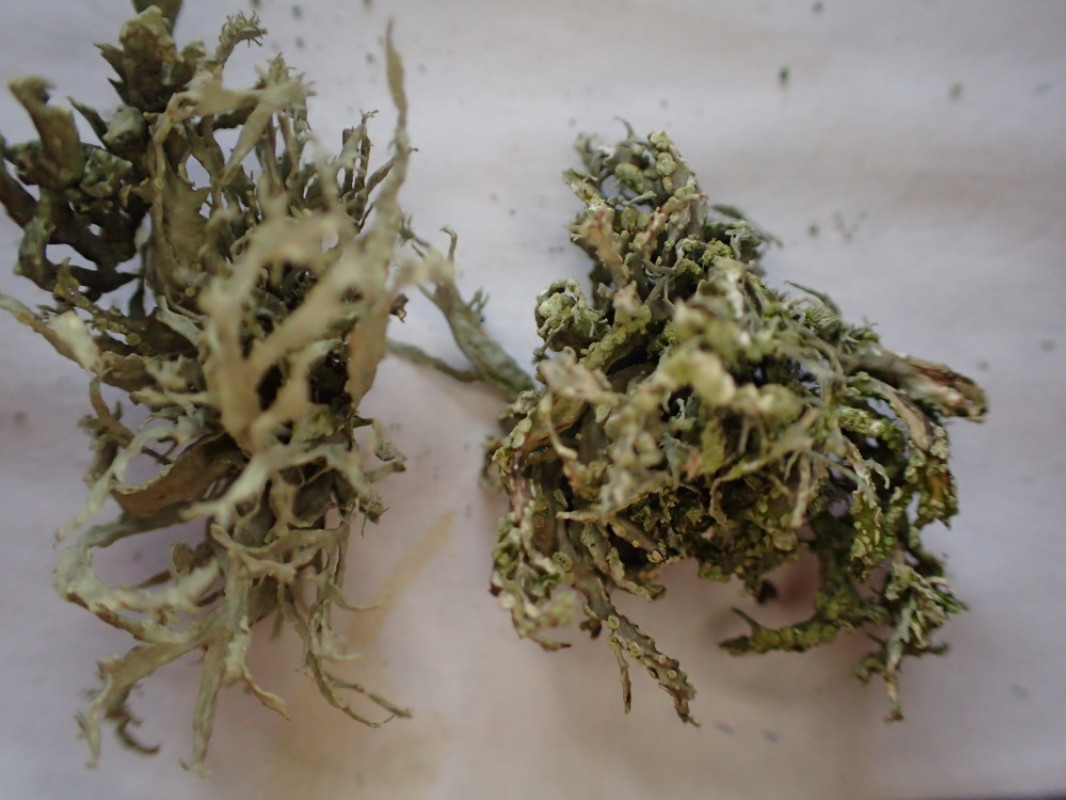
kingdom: Fungi
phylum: Ascomycota
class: Lecanoromycetes
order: Lecanorales
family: Ramalinaceae
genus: Ramalina
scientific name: Ramalina farinacea
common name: melet grenlav
